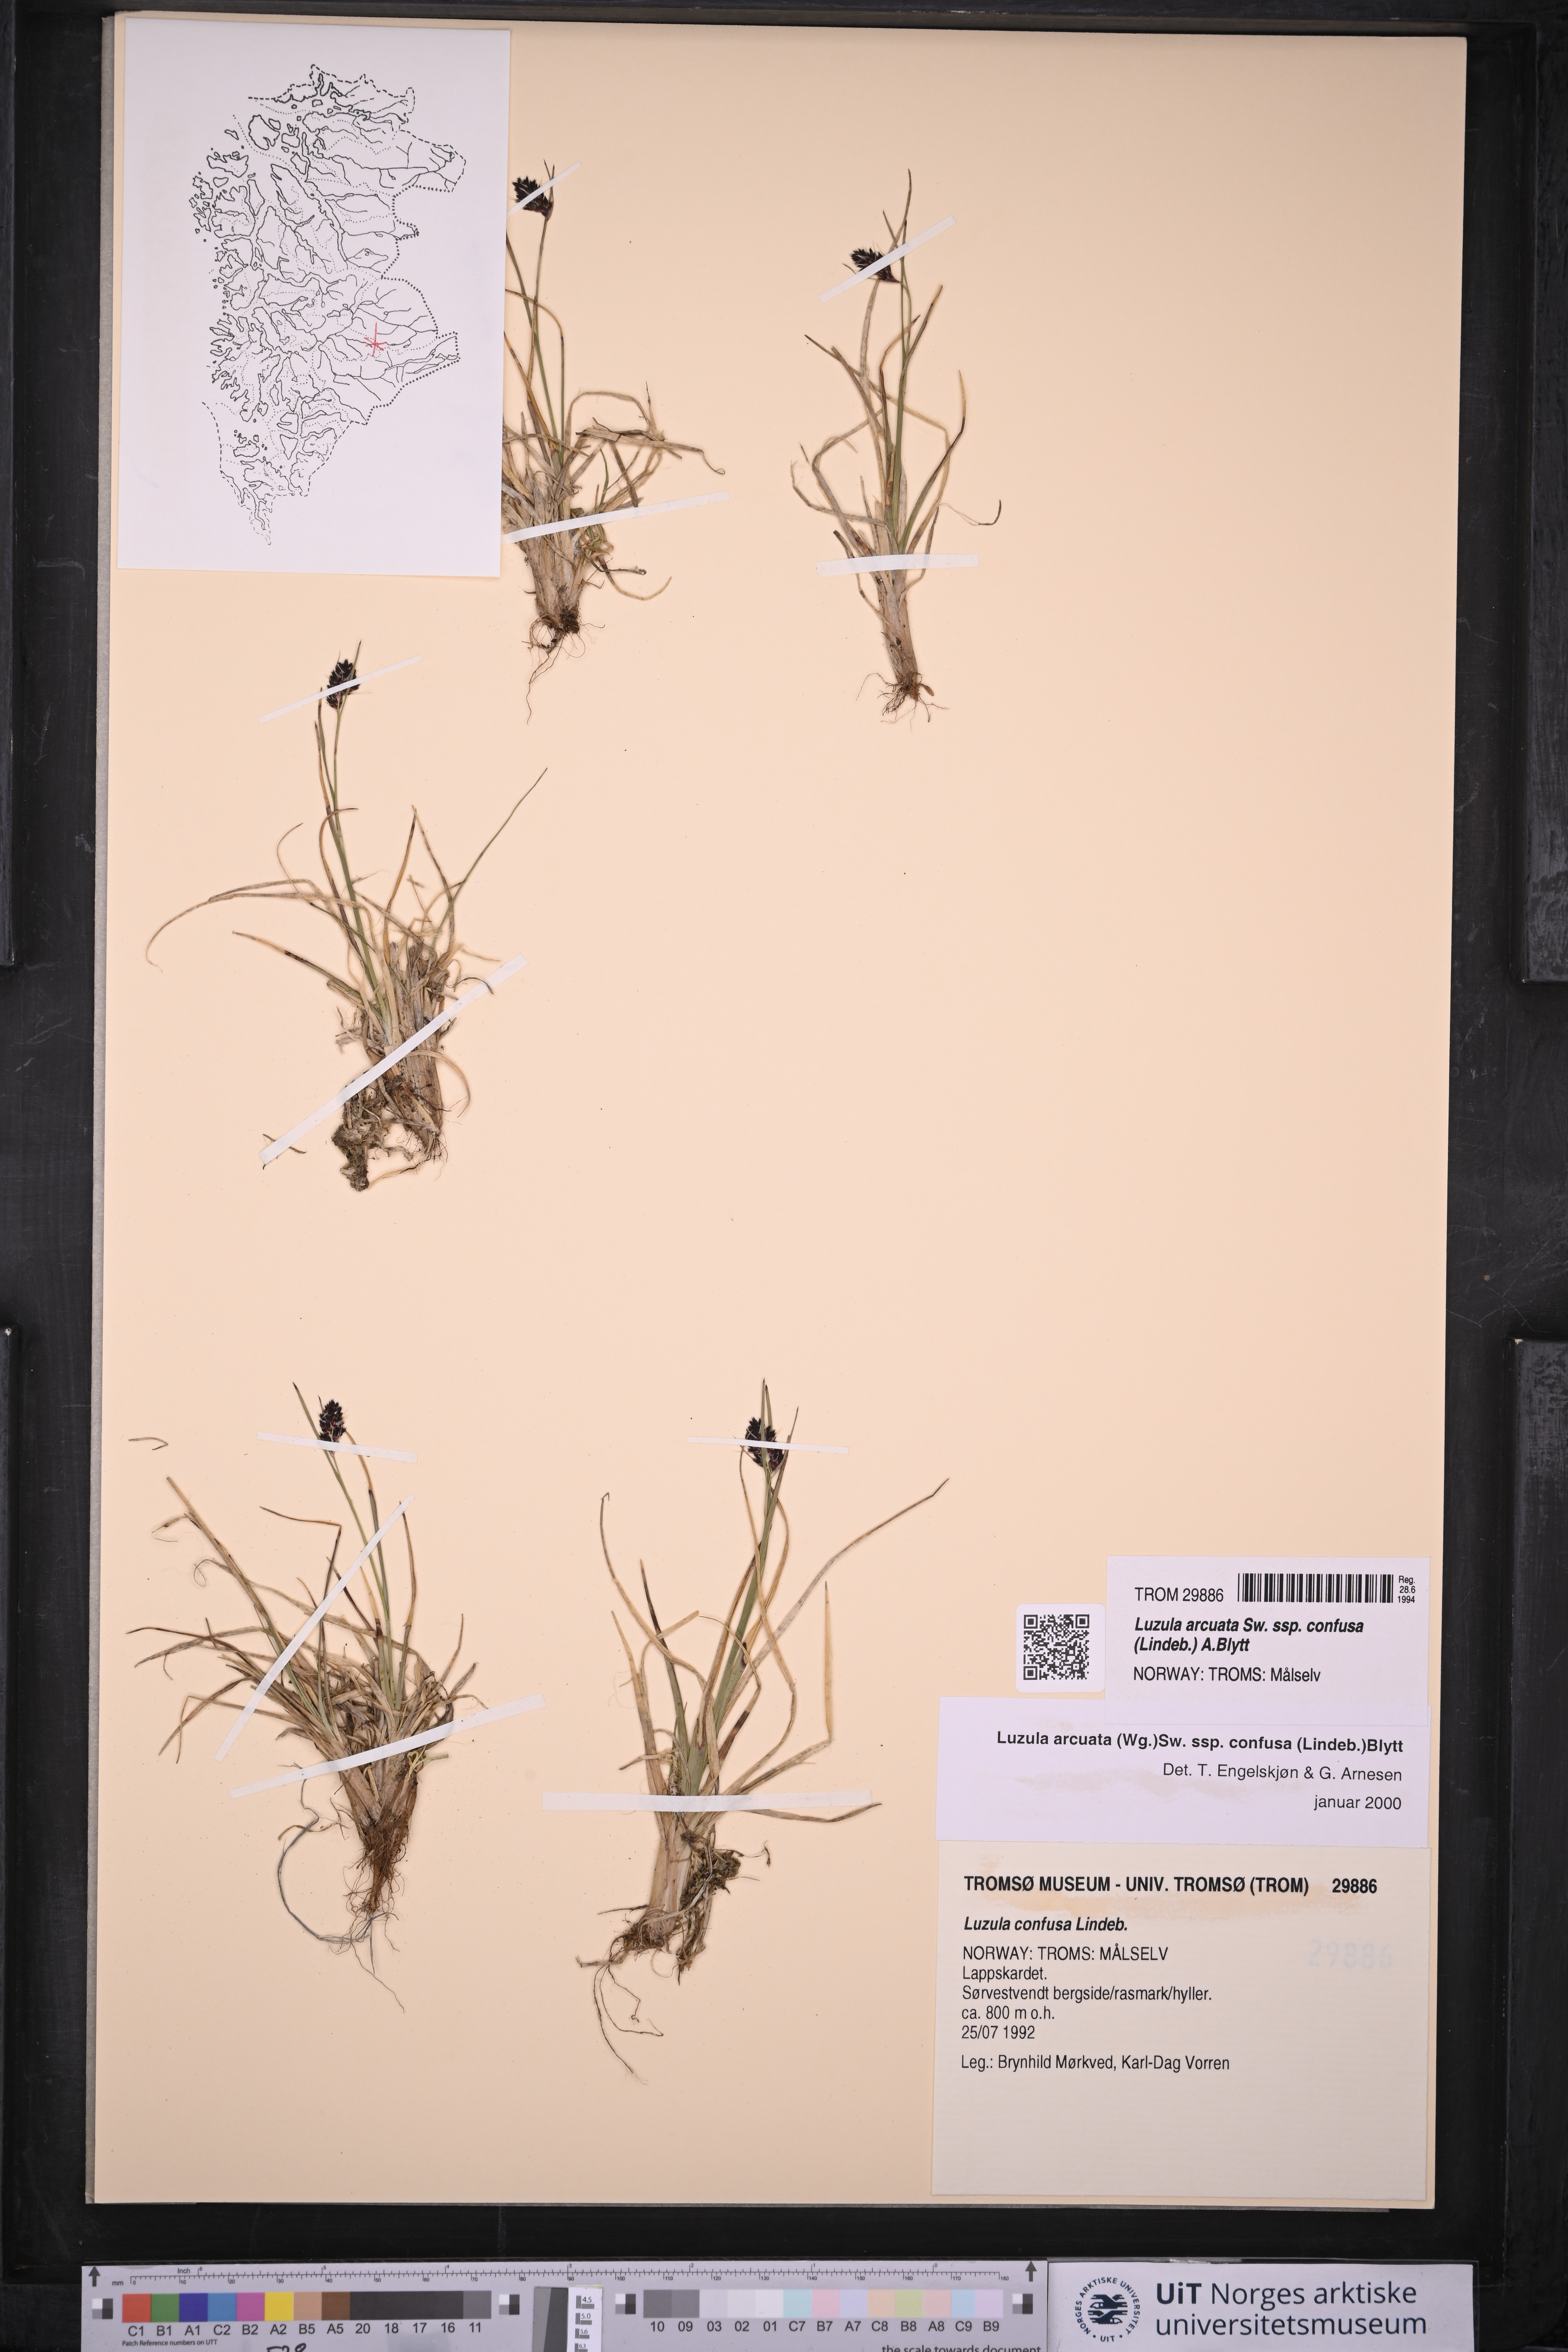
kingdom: Plantae
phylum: Tracheophyta
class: Liliopsida
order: Poales
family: Juncaceae
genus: Luzula
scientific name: Luzula confusa
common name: Northern wood rush
